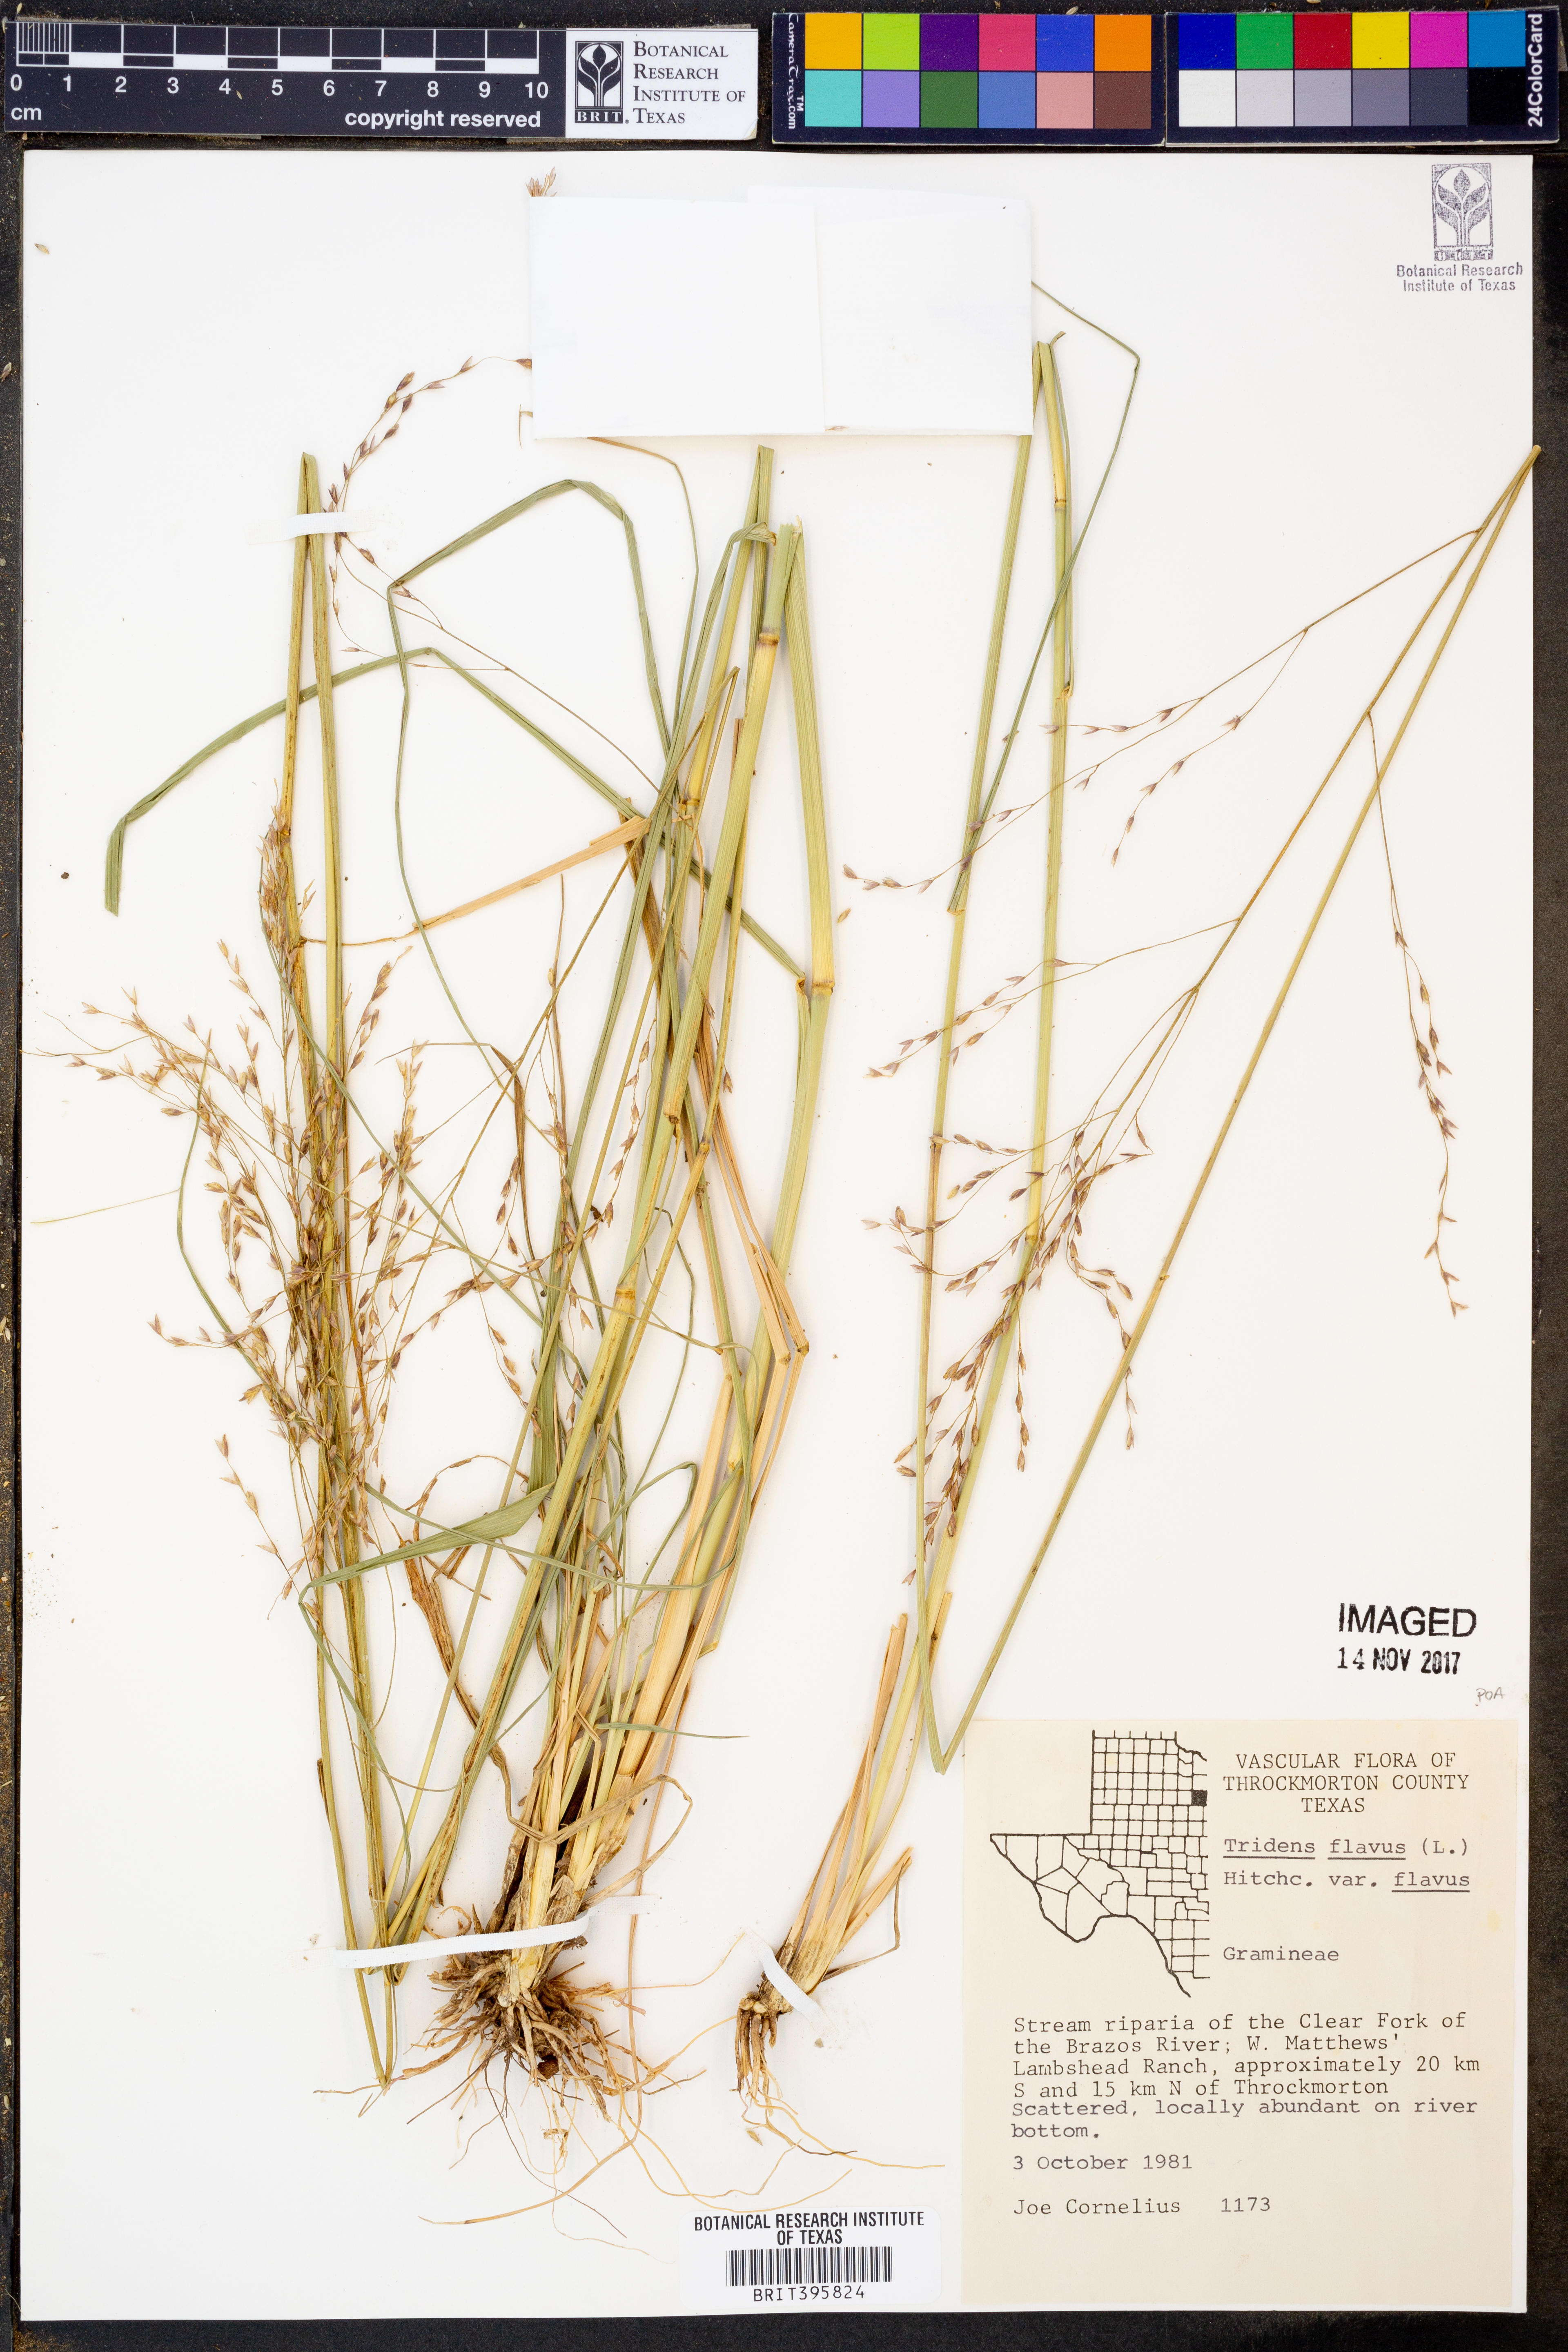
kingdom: Plantae
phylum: Tracheophyta
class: Liliopsida
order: Poales
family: Poaceae
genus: Tridens
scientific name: Tridens flavus
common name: Purpletop
